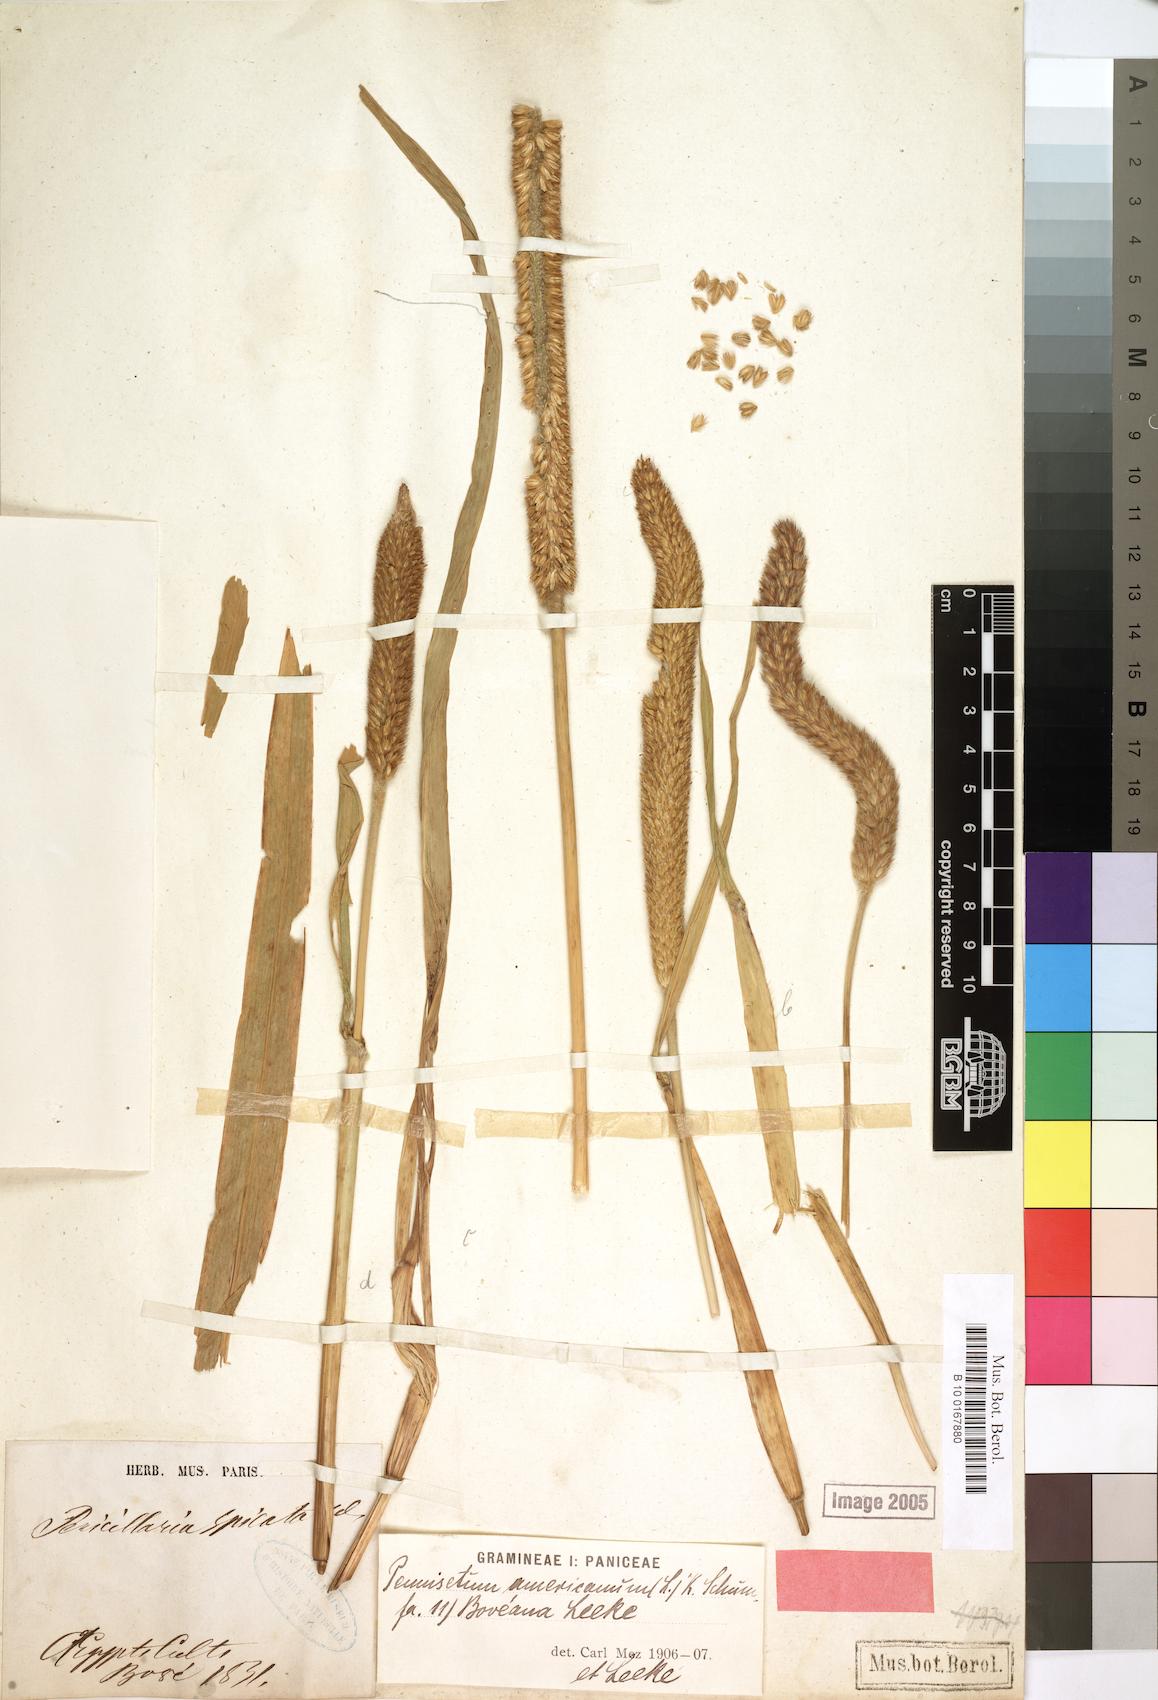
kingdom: Plantae
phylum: Tracheophyta
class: Liliopsida
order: Poales
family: Poaceae
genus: Cenchrus
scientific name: Cenchrus americanus
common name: Pearl millet
